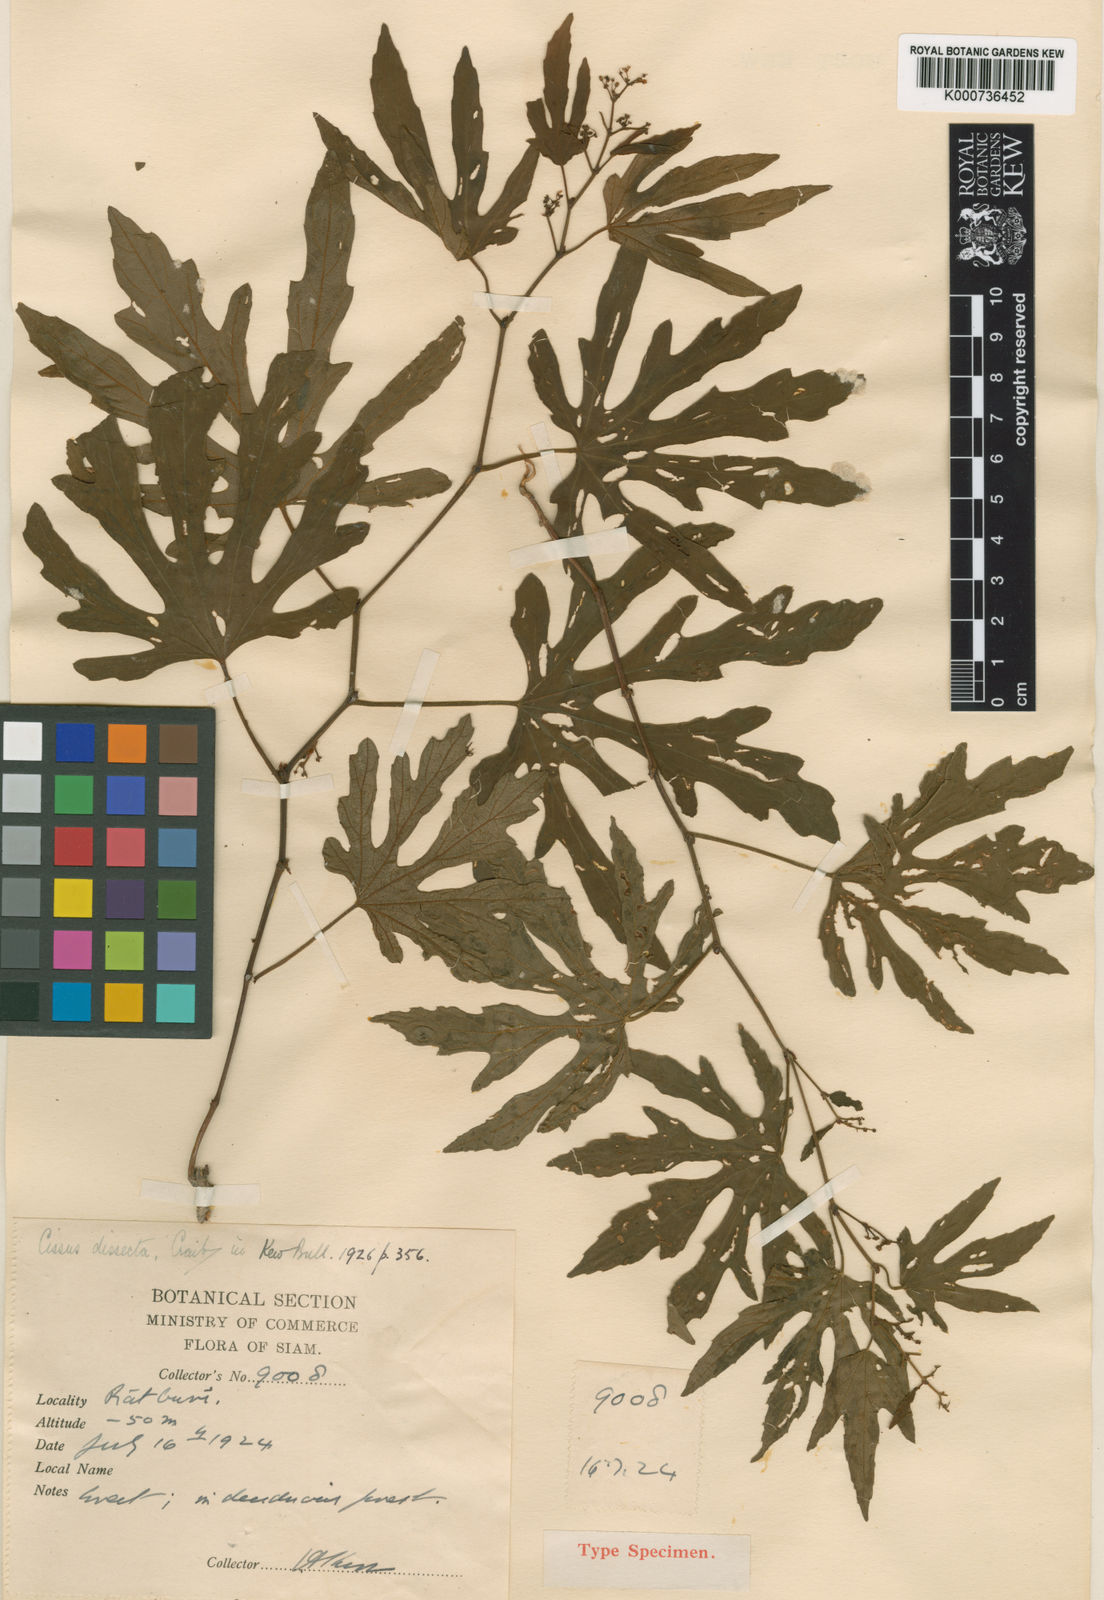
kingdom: Plantae
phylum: Tracheophyta
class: Magnoliopsida
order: Vitales
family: Vitaceae
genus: Cissus
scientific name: Cissus craibii
